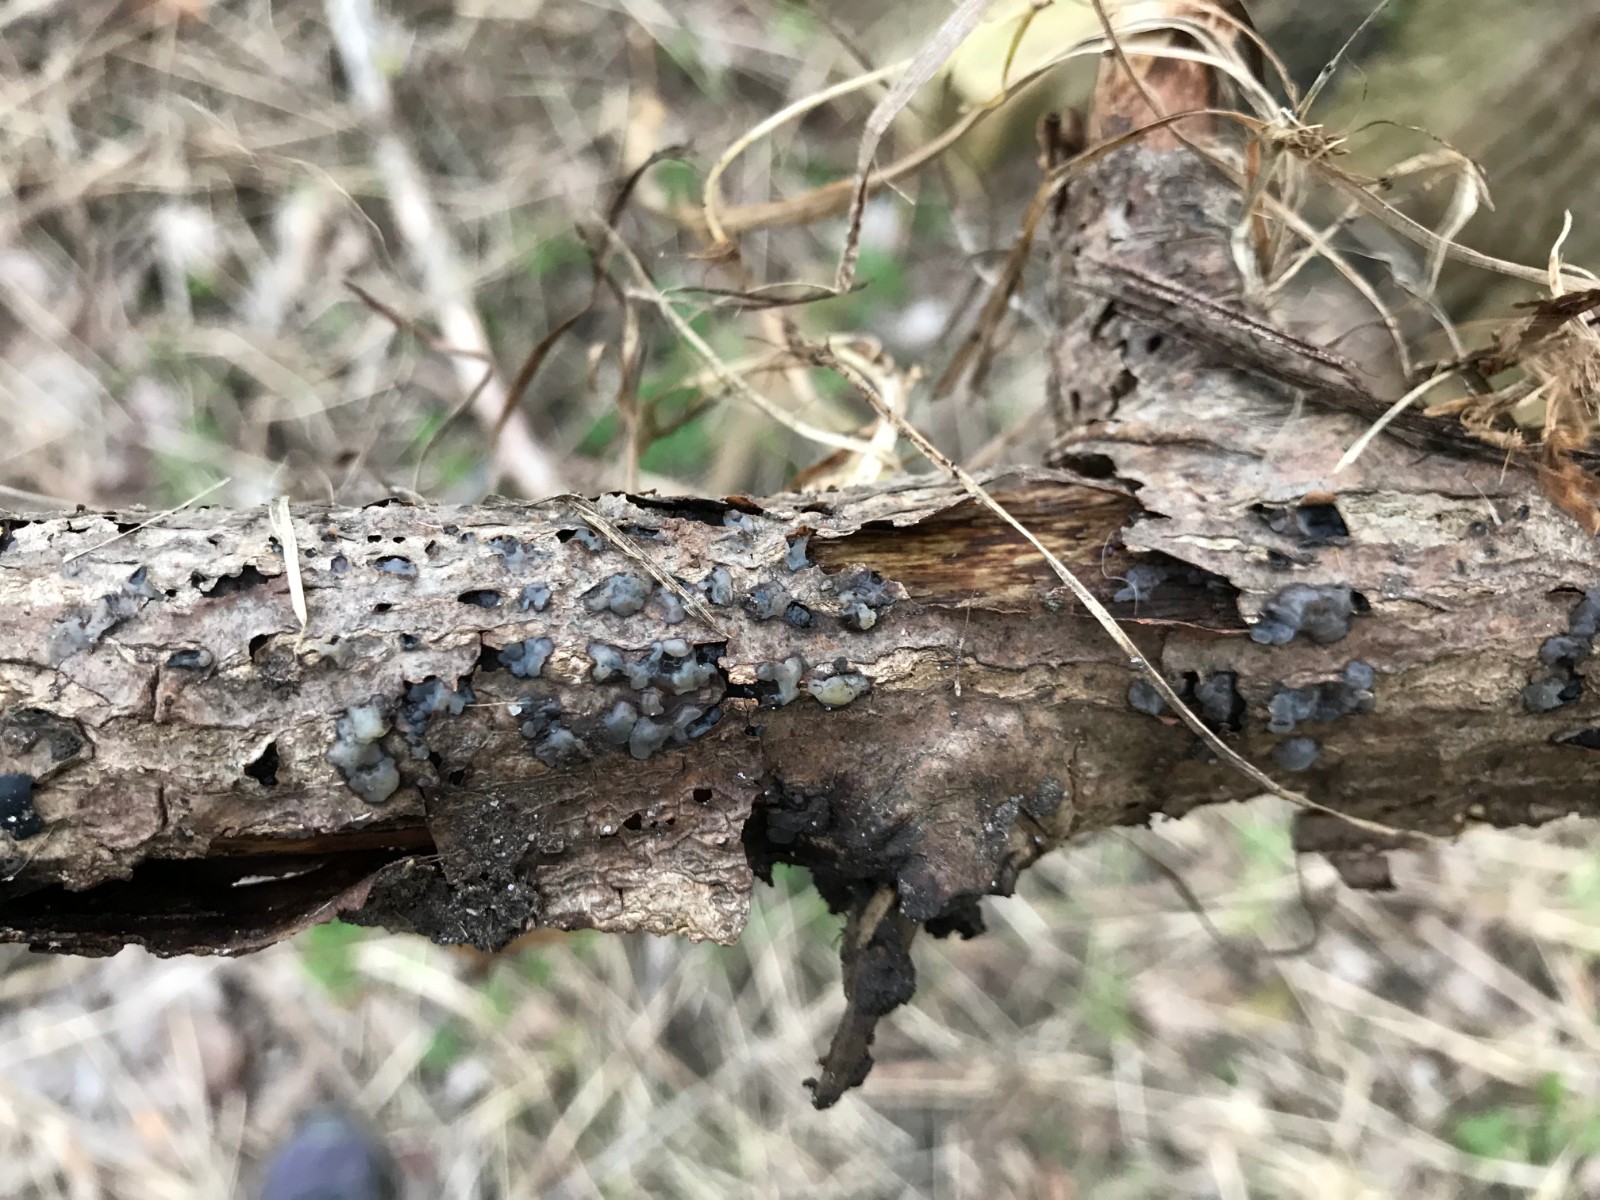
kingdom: Fungi
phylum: Basidiomycota
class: Agaricomycetes
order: Auriculariales
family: Hyaloriaceae
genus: Myxarium
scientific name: Myxarium
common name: bævretop
